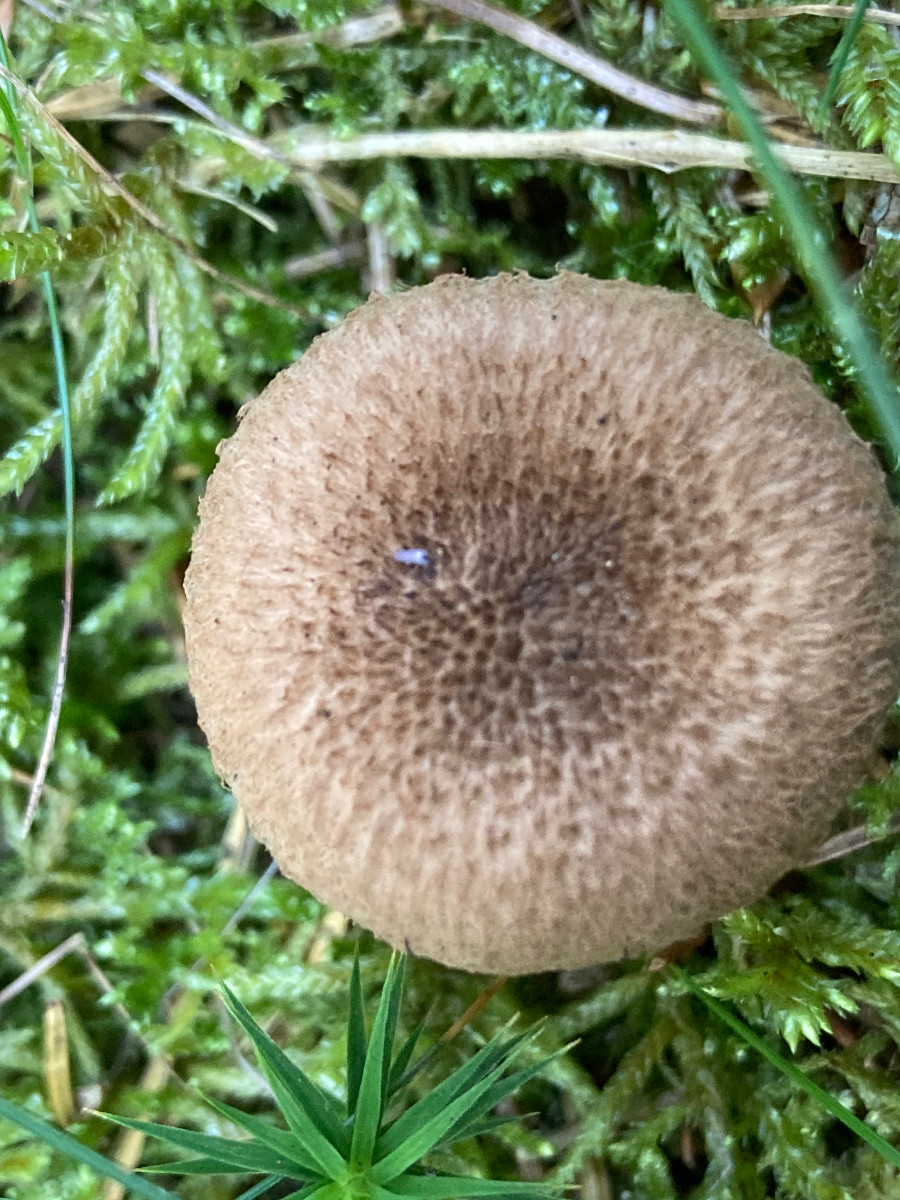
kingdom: Fungi
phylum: Basidiomycota
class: Agaricomycetes
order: Agaricales
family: Inocybaceae
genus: Inocybe
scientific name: Inocybe
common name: trævlhat
